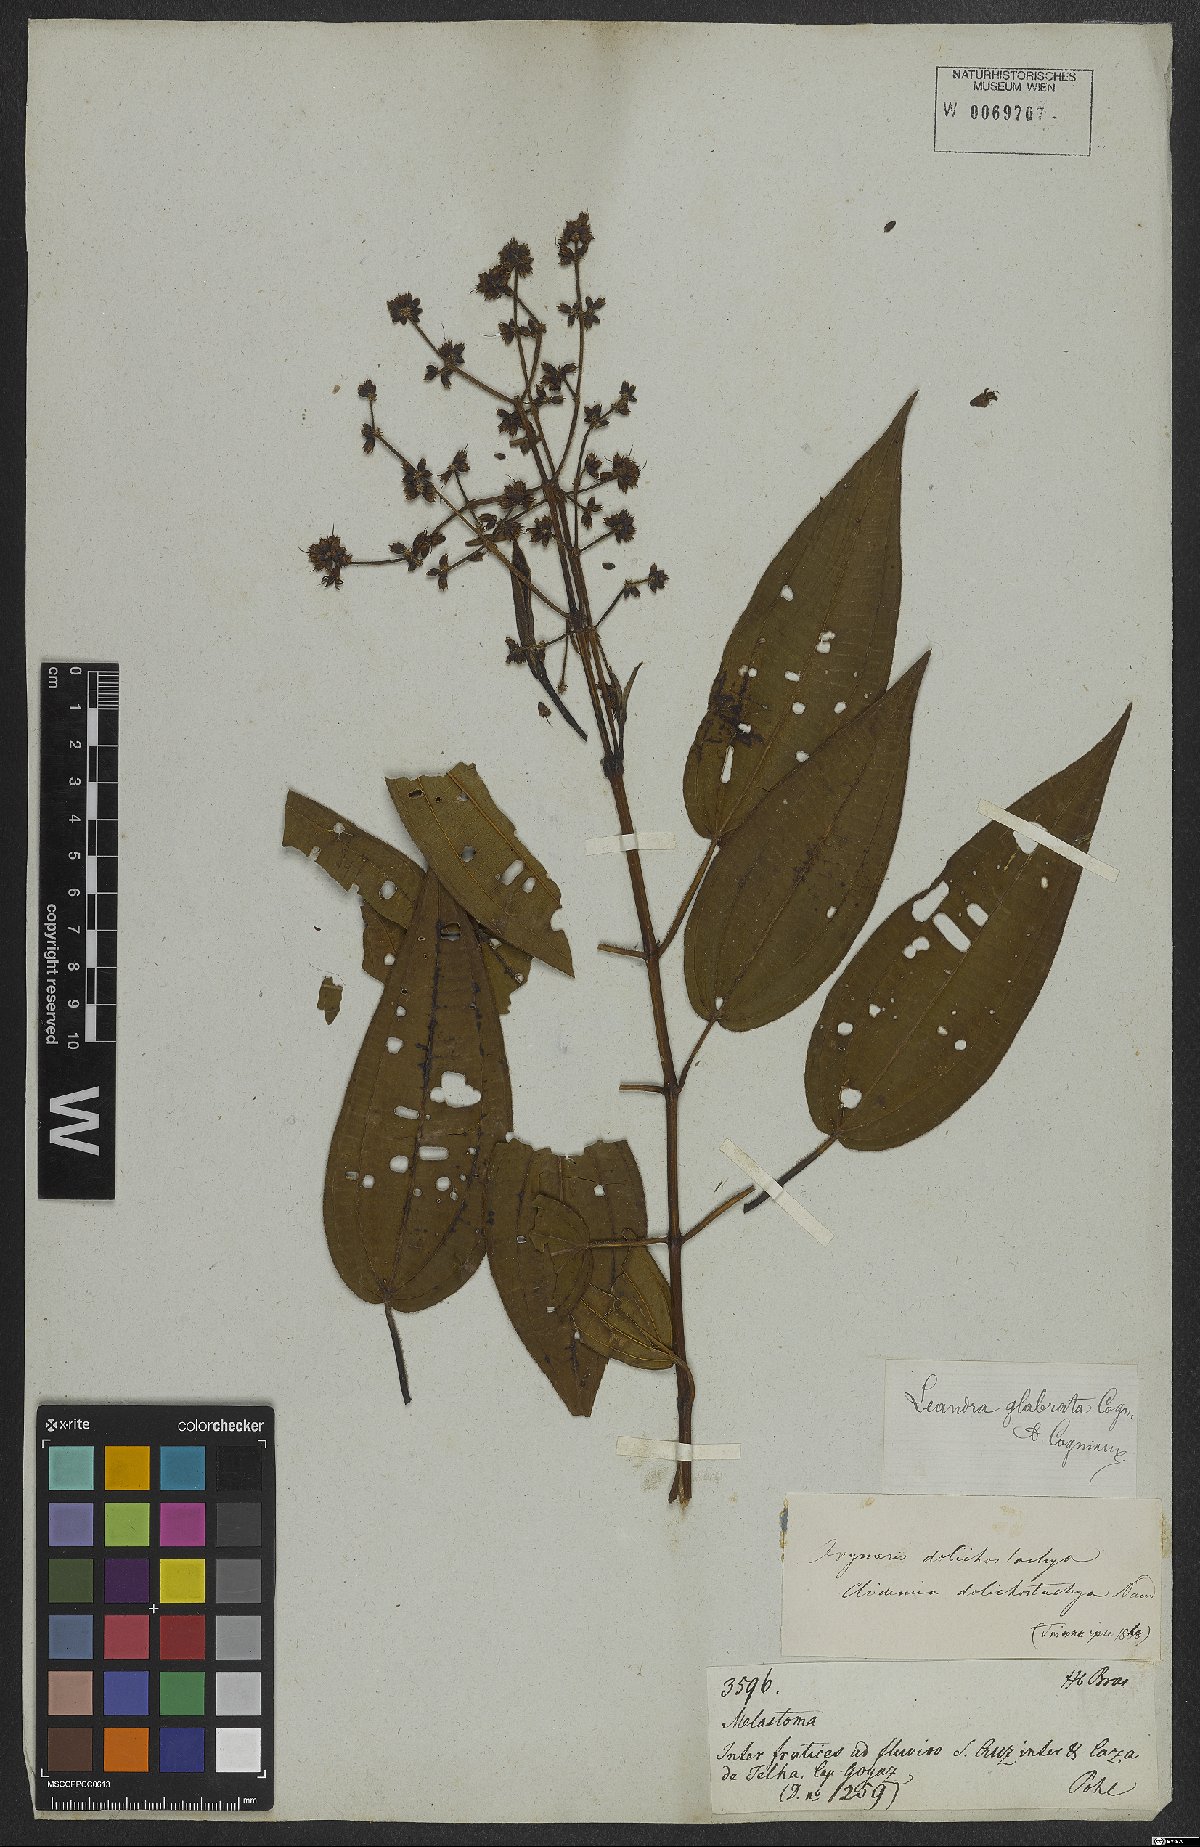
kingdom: Plantae
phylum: Tracheophyta
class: Magnoliopsida
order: Myrtales
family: Melastomataceae
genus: Miconia
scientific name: Miconia dolichostachya
